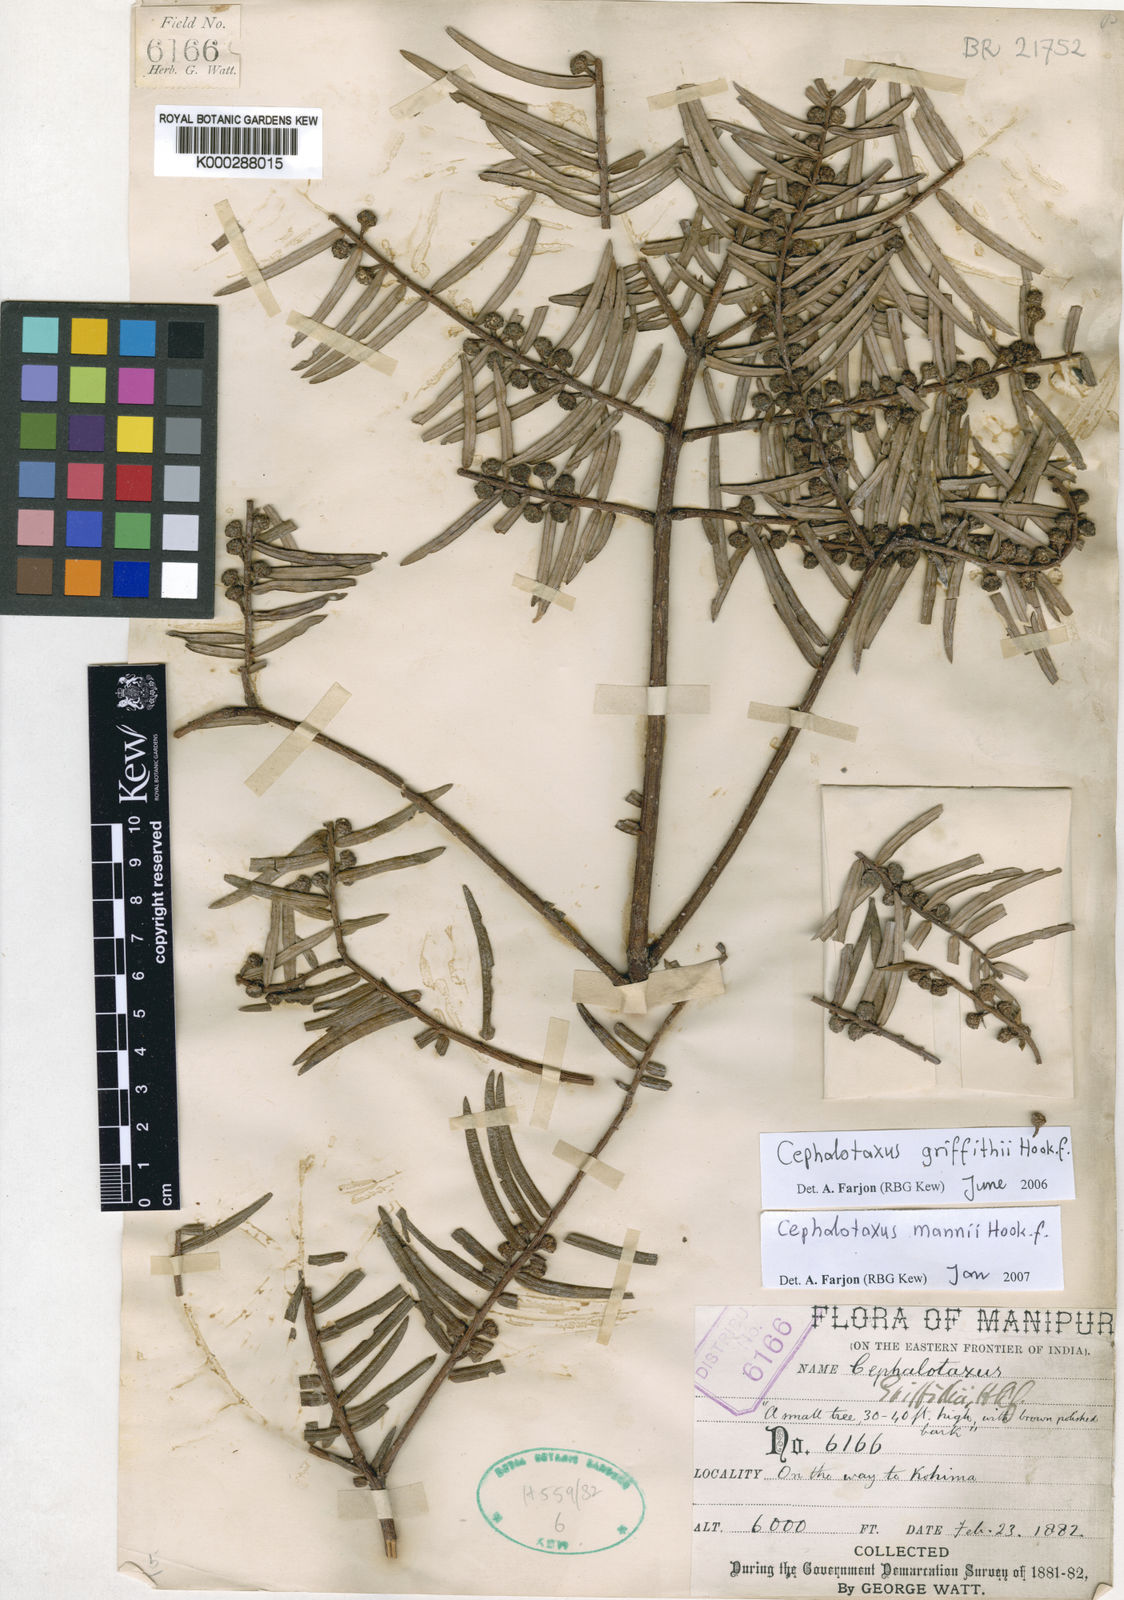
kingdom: Plantae
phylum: Tracheophyta
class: Pinopsida
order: Pinales
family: Cephalotaxaceae
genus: Cephalotaxus
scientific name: Cephalotaxus mannii
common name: Mann's yew plum
